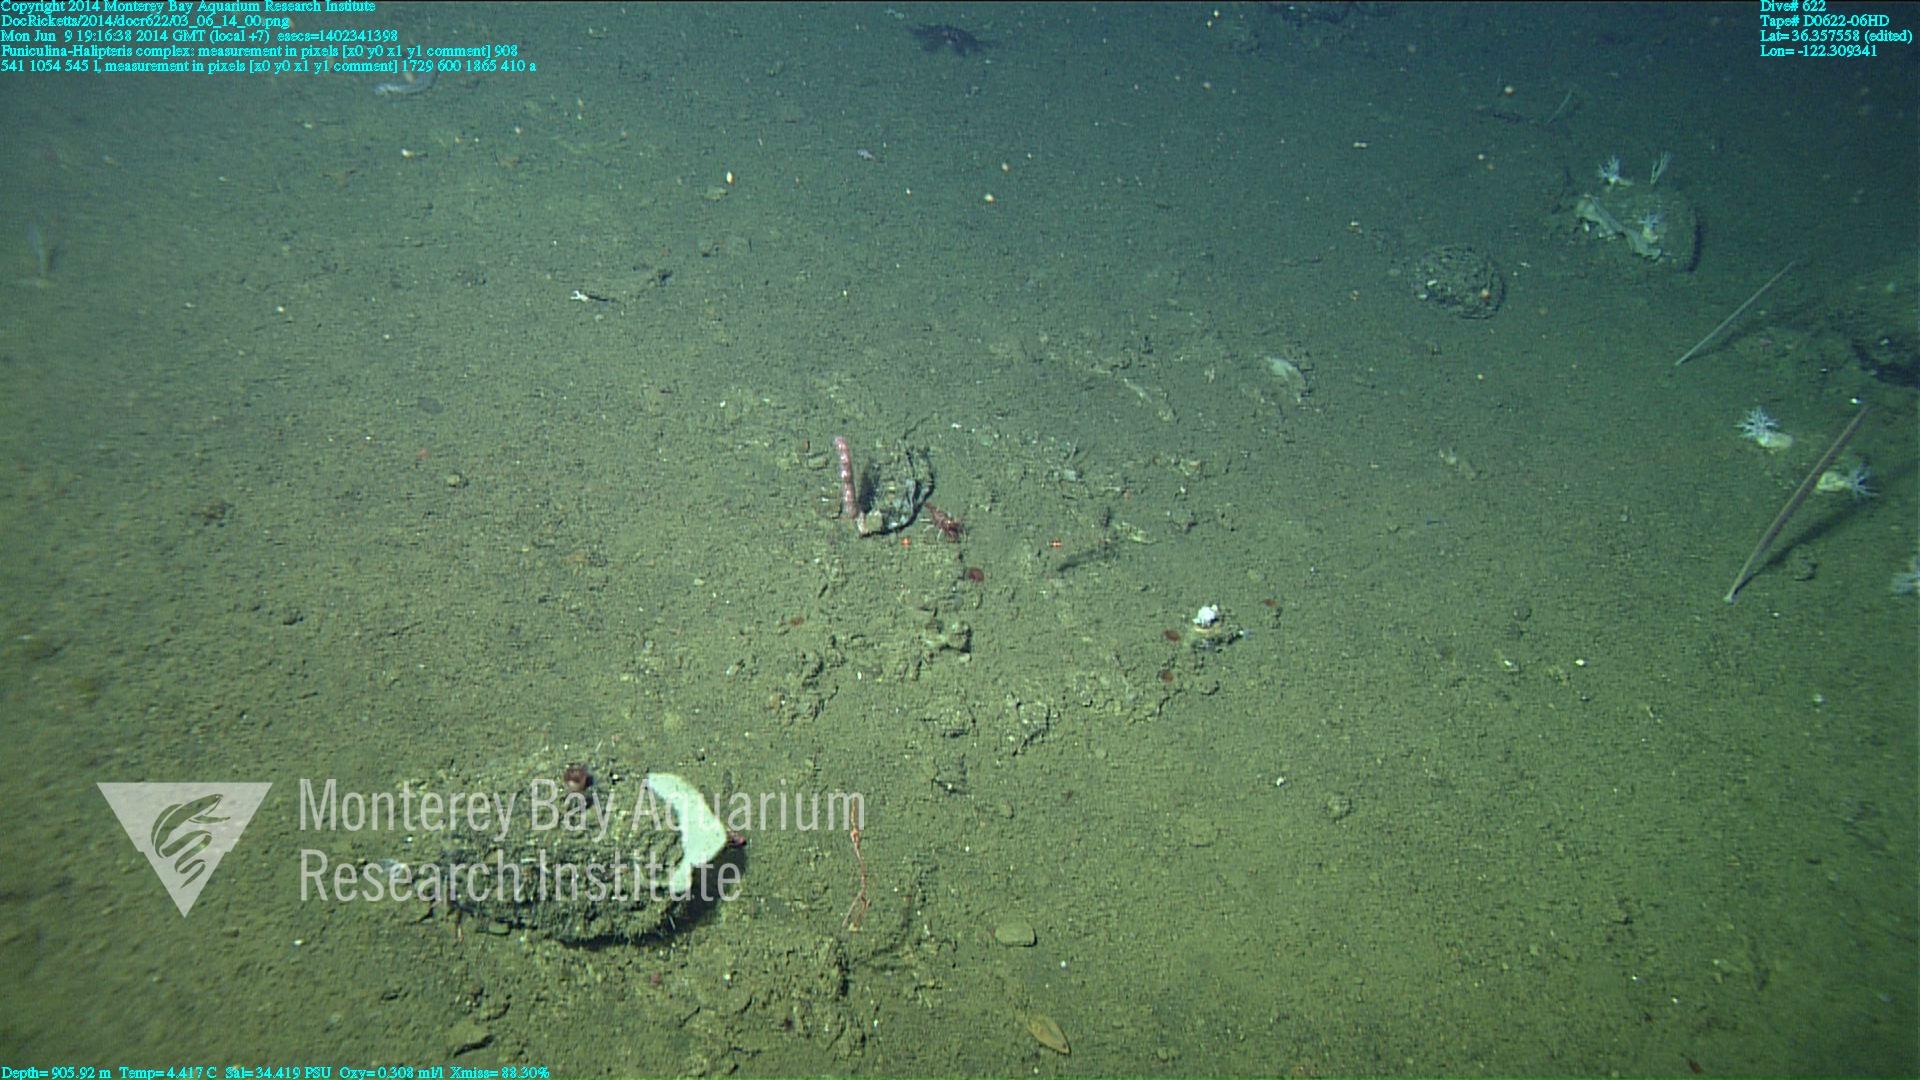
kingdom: Animalia
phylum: Cnidaria
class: Anthozoa
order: Scleralcyonacea
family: Funiculinidae
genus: Funiculina
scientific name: Funiculina
